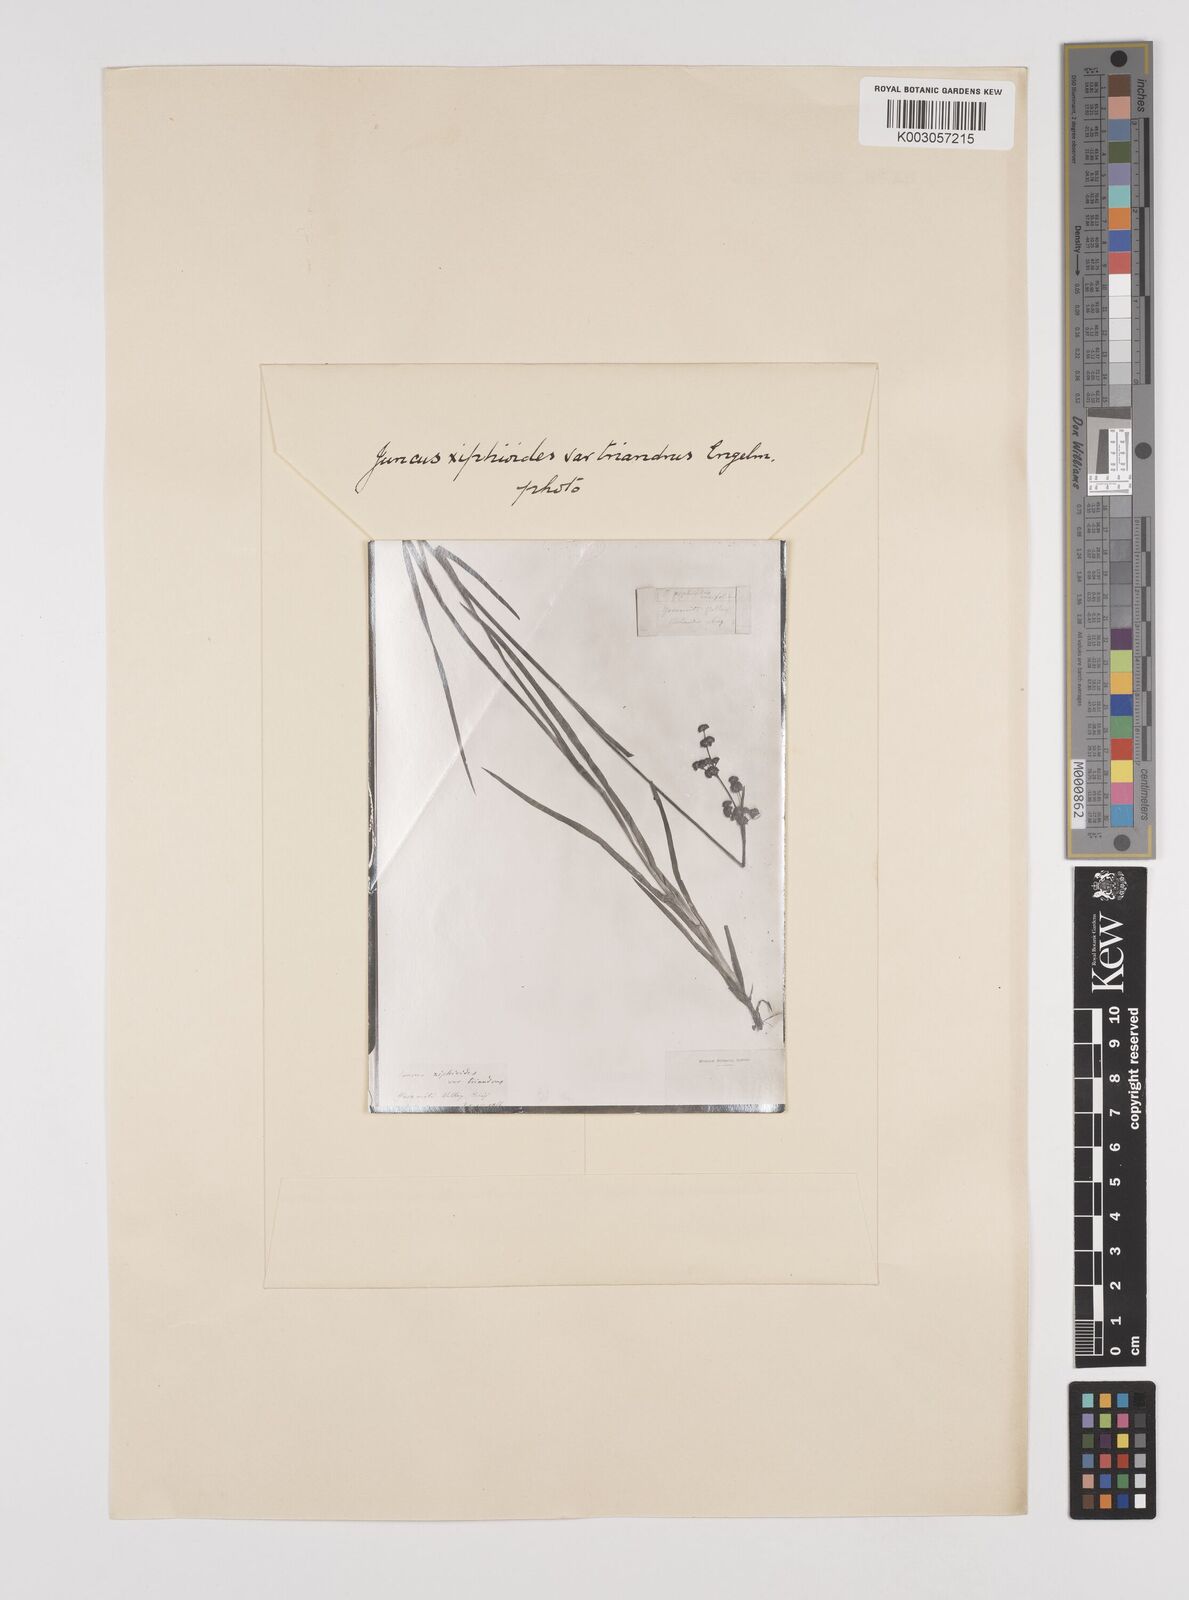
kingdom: Plantae
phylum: Tracheophyta
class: Liliopsida
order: Poales
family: Juncaceae
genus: Juncus
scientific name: Juncus ensifolius
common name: Sword-leaved rush
